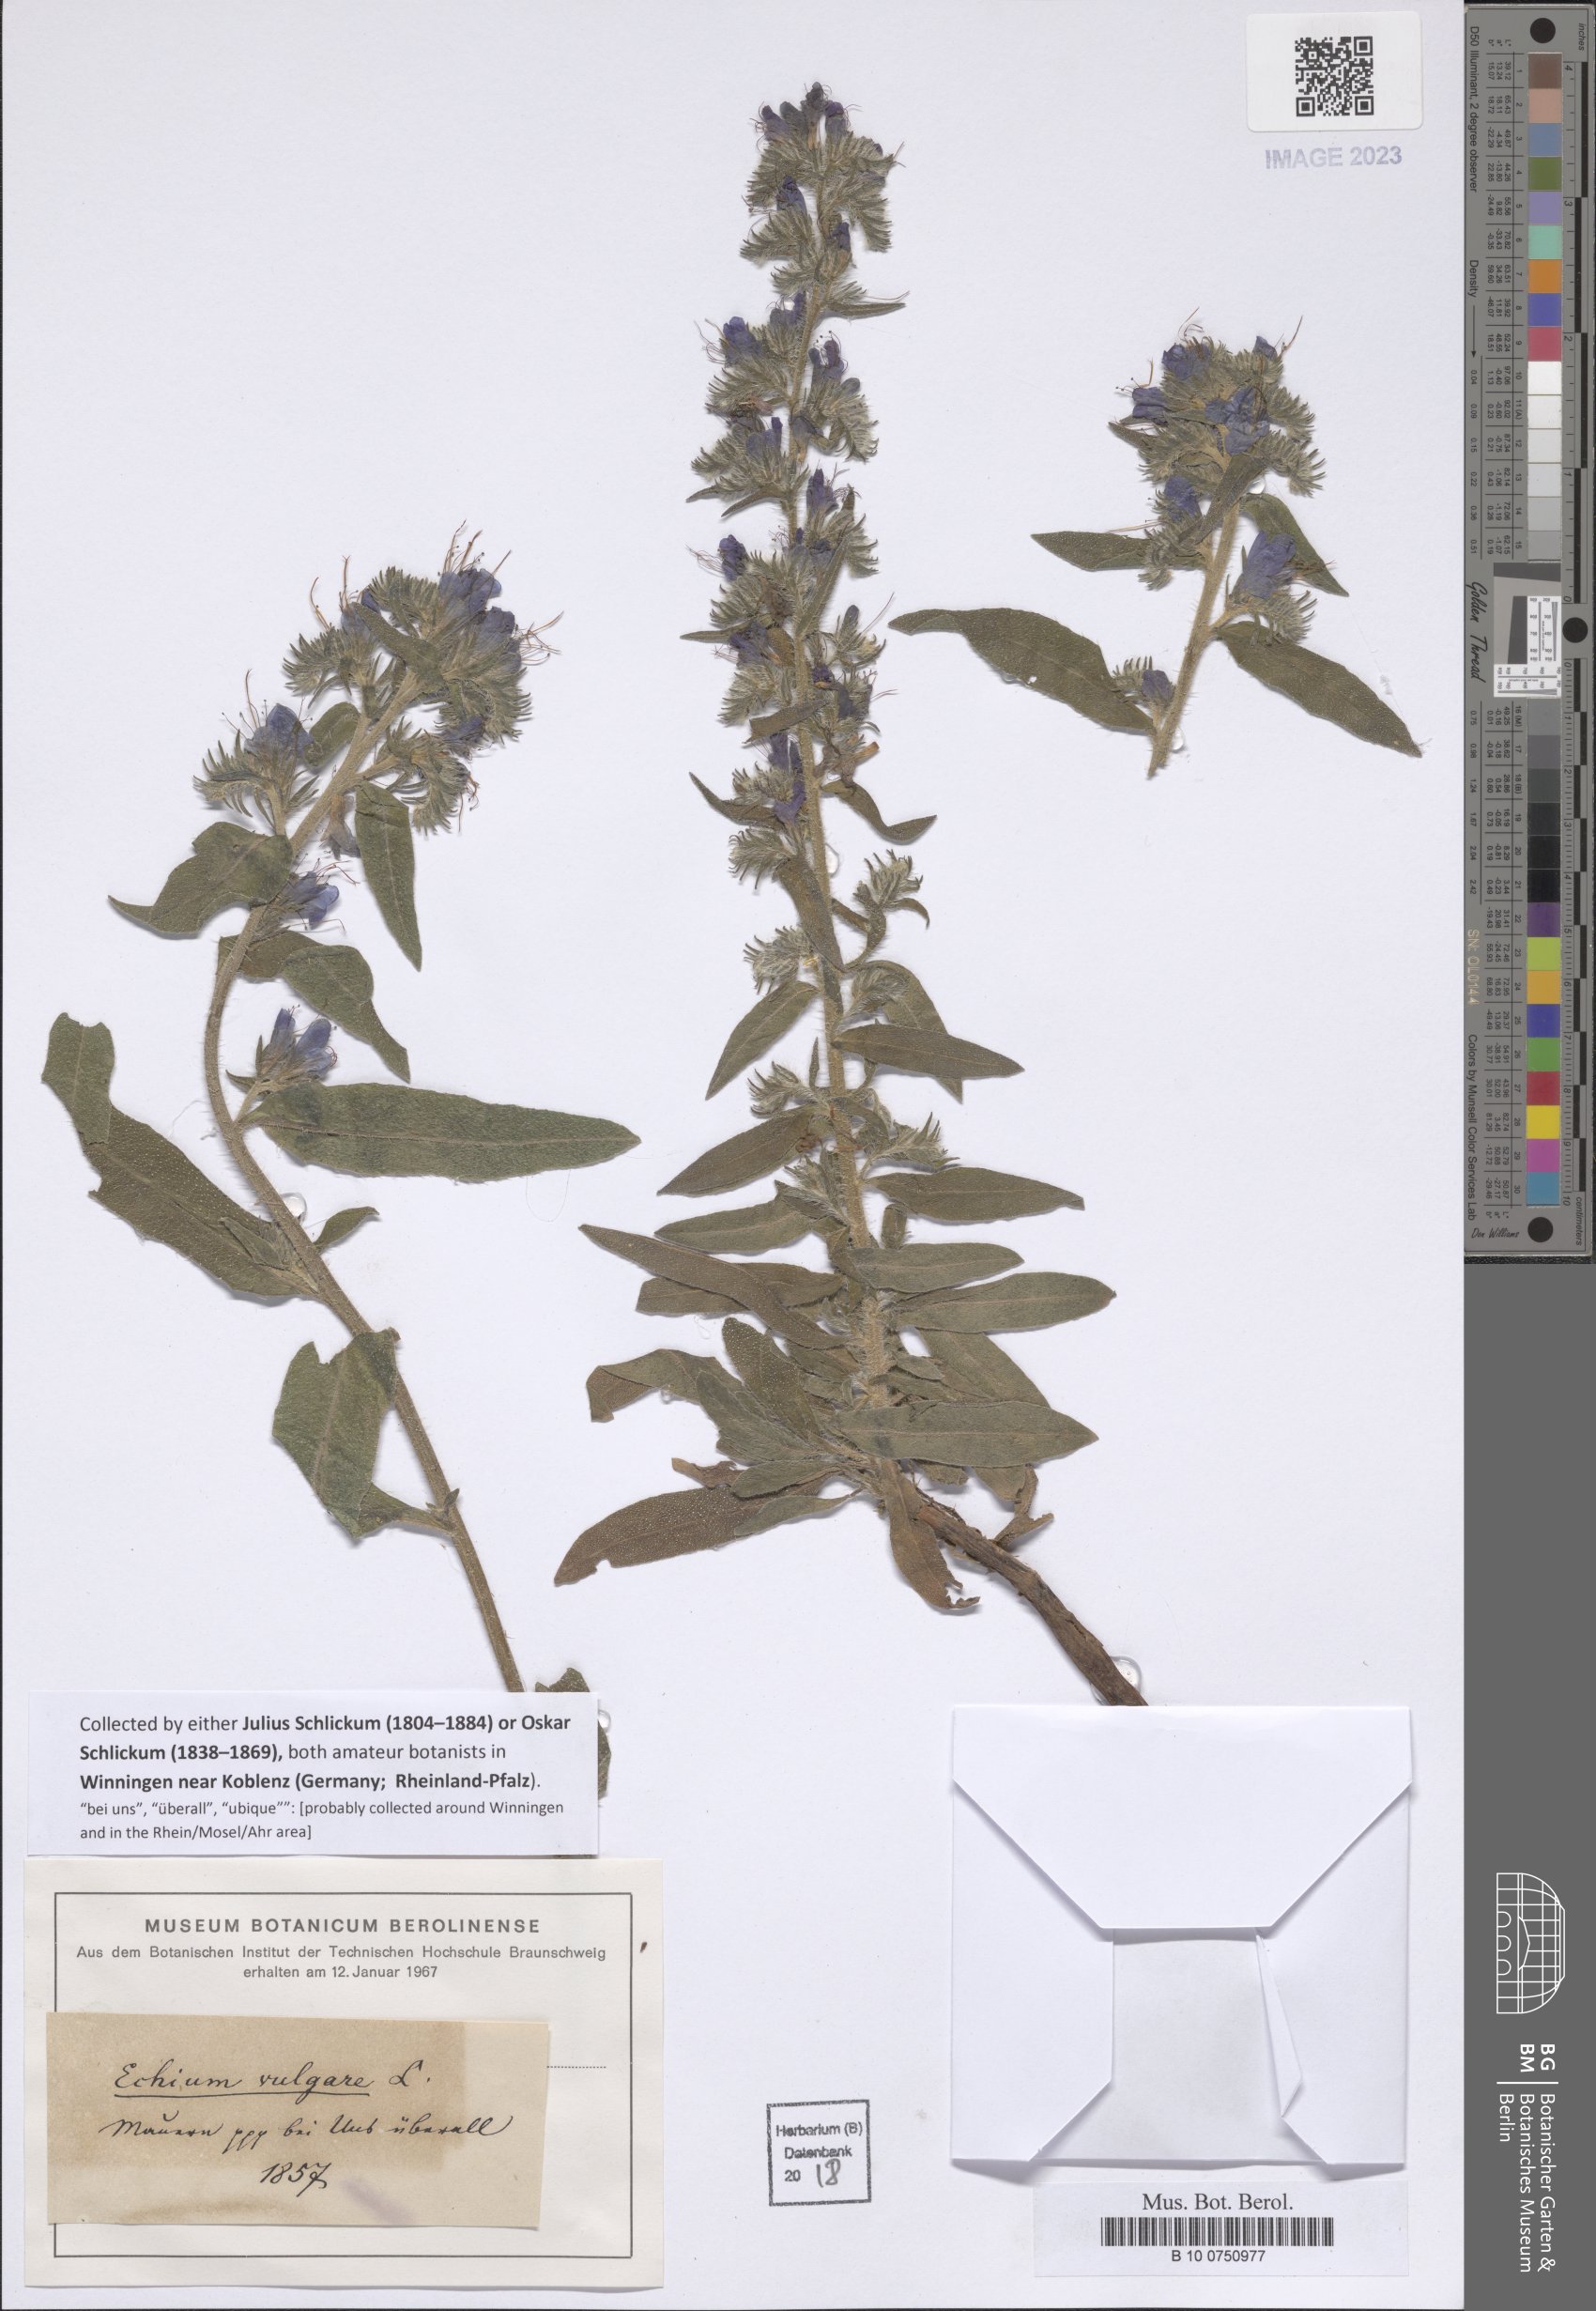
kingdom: Plantae
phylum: Tracheophyta
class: Magnoliopsida
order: Boraginales
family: Boraginaceae
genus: Echium
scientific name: Echium vulgare
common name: Common viper's bugloss
